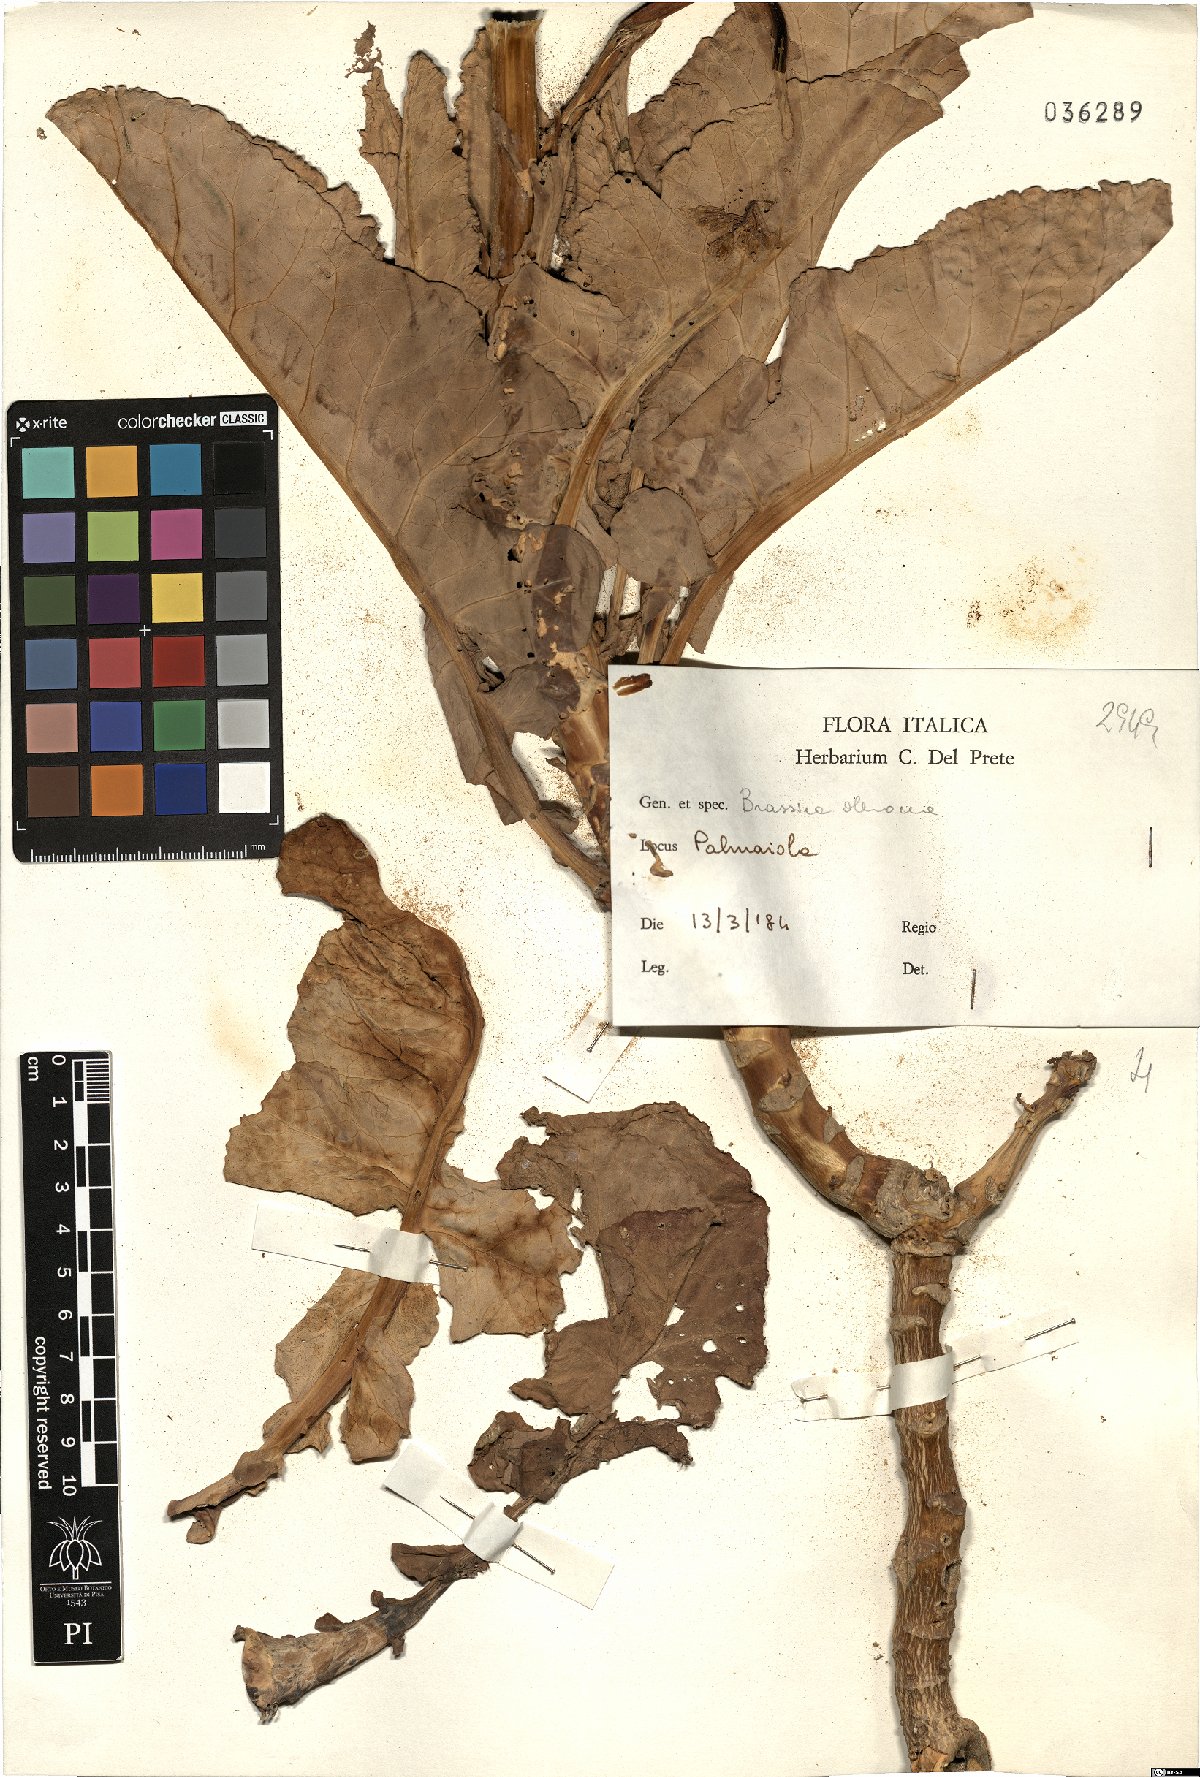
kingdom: Plantae
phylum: Tracheophyta
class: Magnoliopsida
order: Brassicales
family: Brassicaceae
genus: Brassica
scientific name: Brassica oleracea
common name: Cabbage
